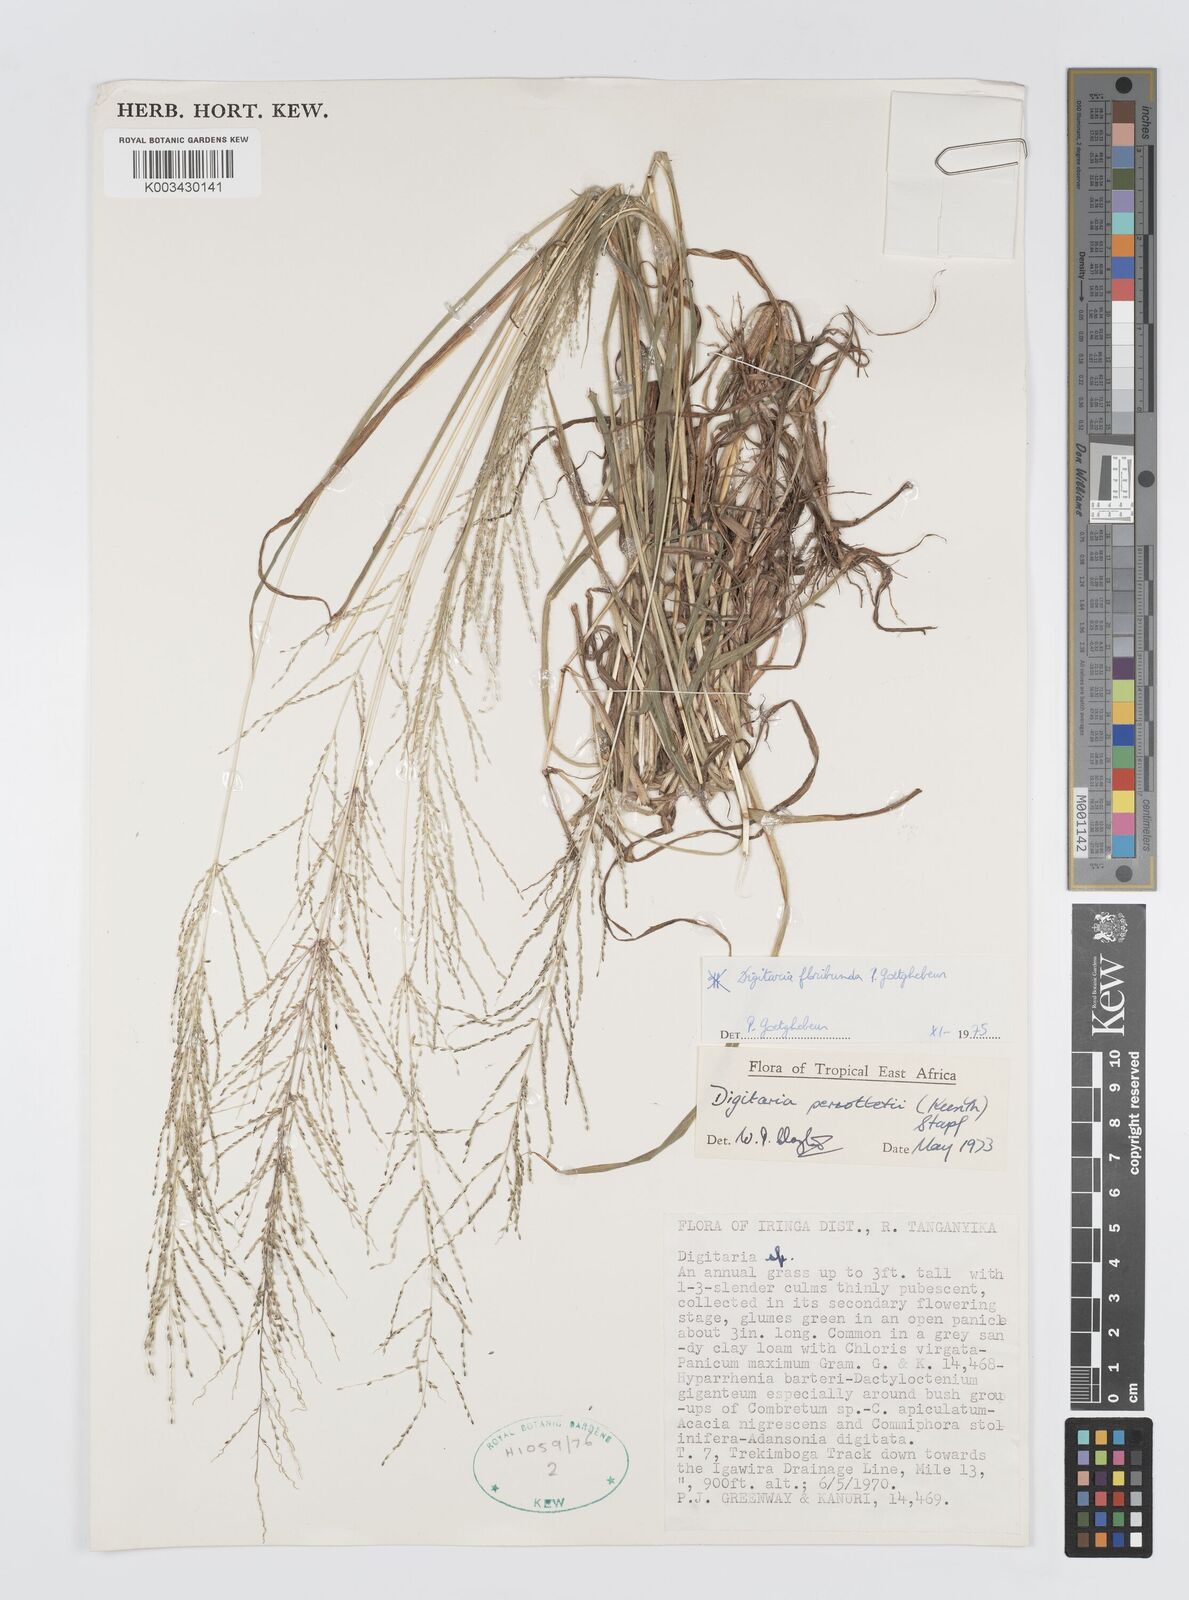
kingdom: Plantae
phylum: Tracheophyta
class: Liliopsida
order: Poales
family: Poaceae
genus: Digitaria
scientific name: Digitaria perrottetii
